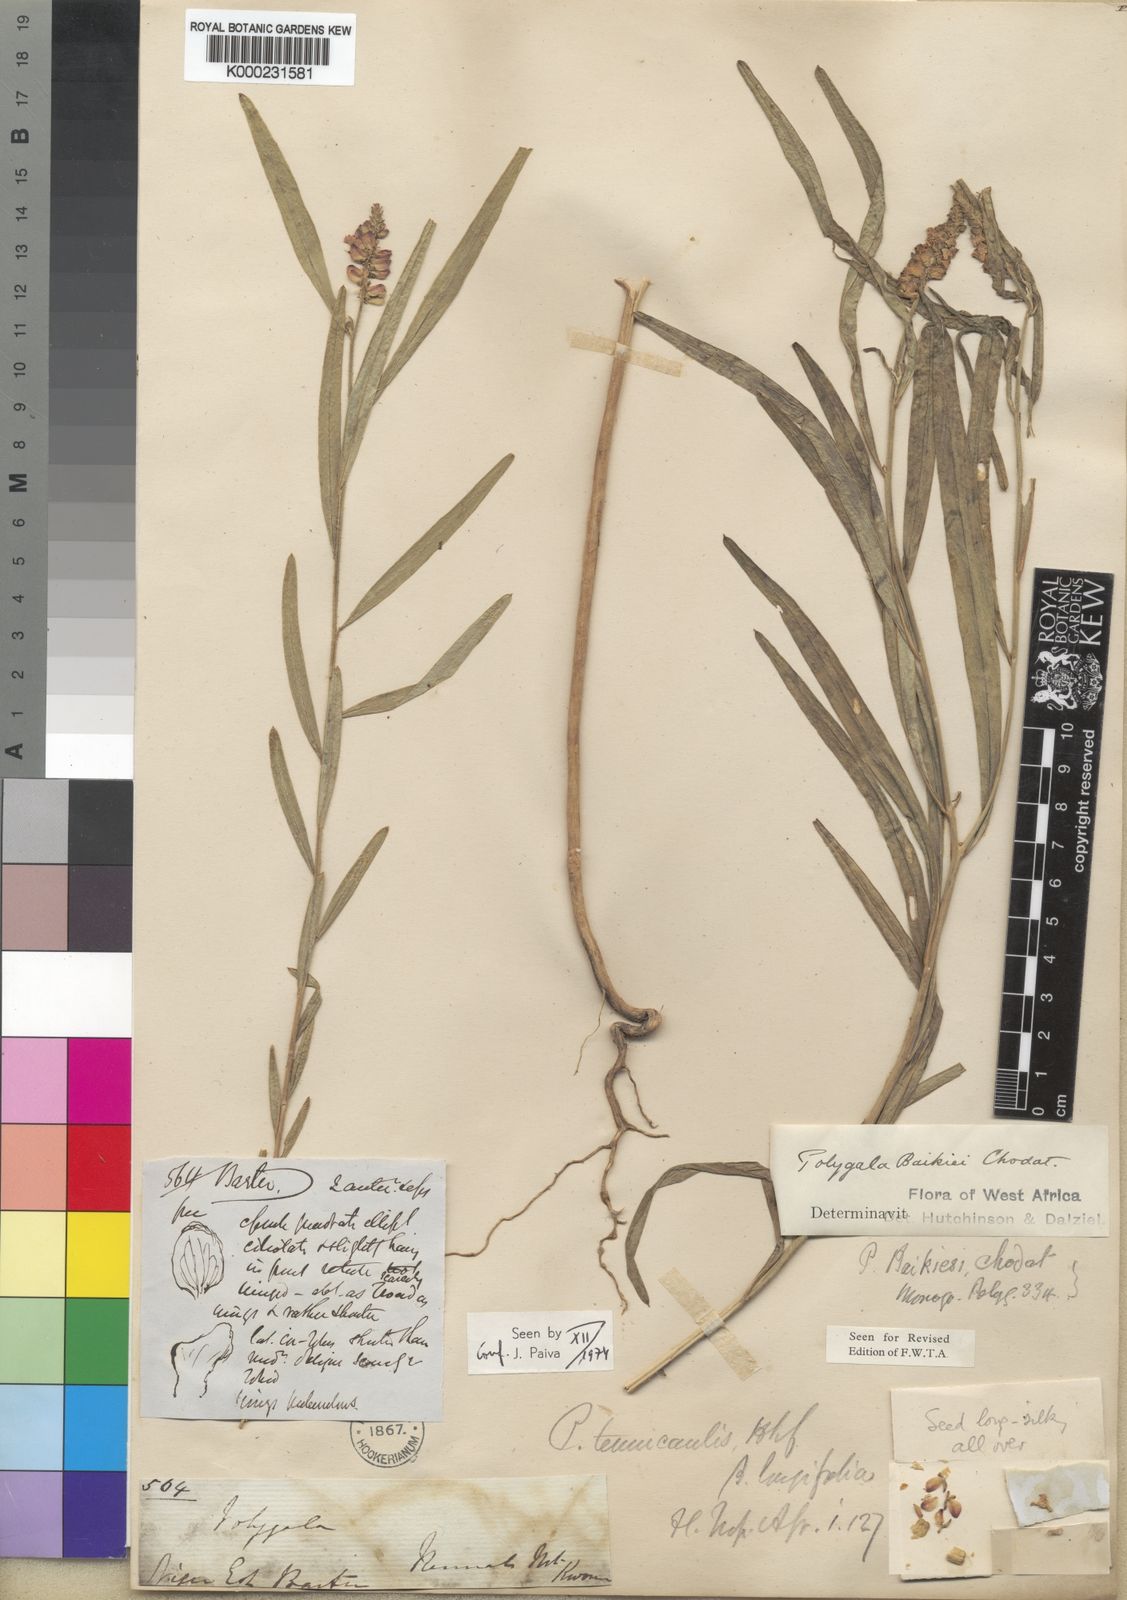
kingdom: Plantae
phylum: Tracheophyta
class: Magnoliopsida
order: Fabales
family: Polygalaceae
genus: Polygala
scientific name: Polygala baikiei
